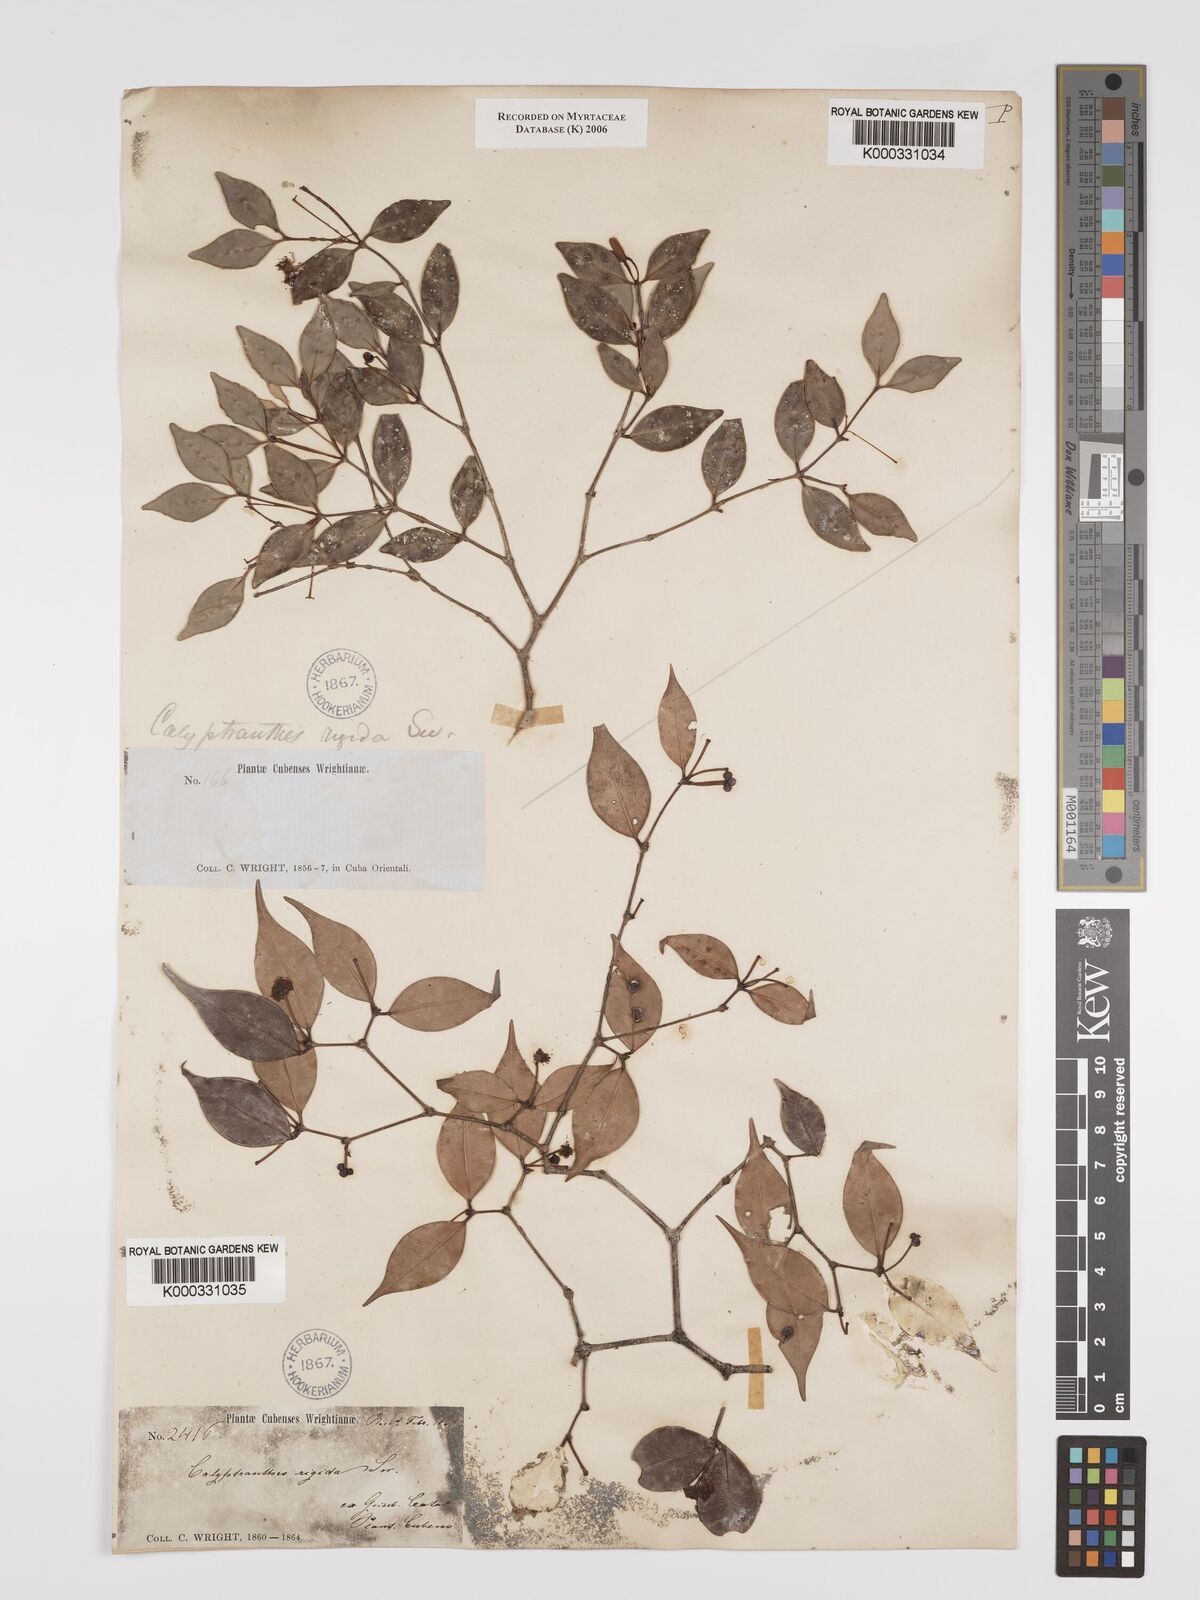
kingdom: Plantae
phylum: Tracheophyta
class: Magnoliopsida
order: Myrtales
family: Myrtaceae
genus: Myrcia
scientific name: Myrcia rigida
